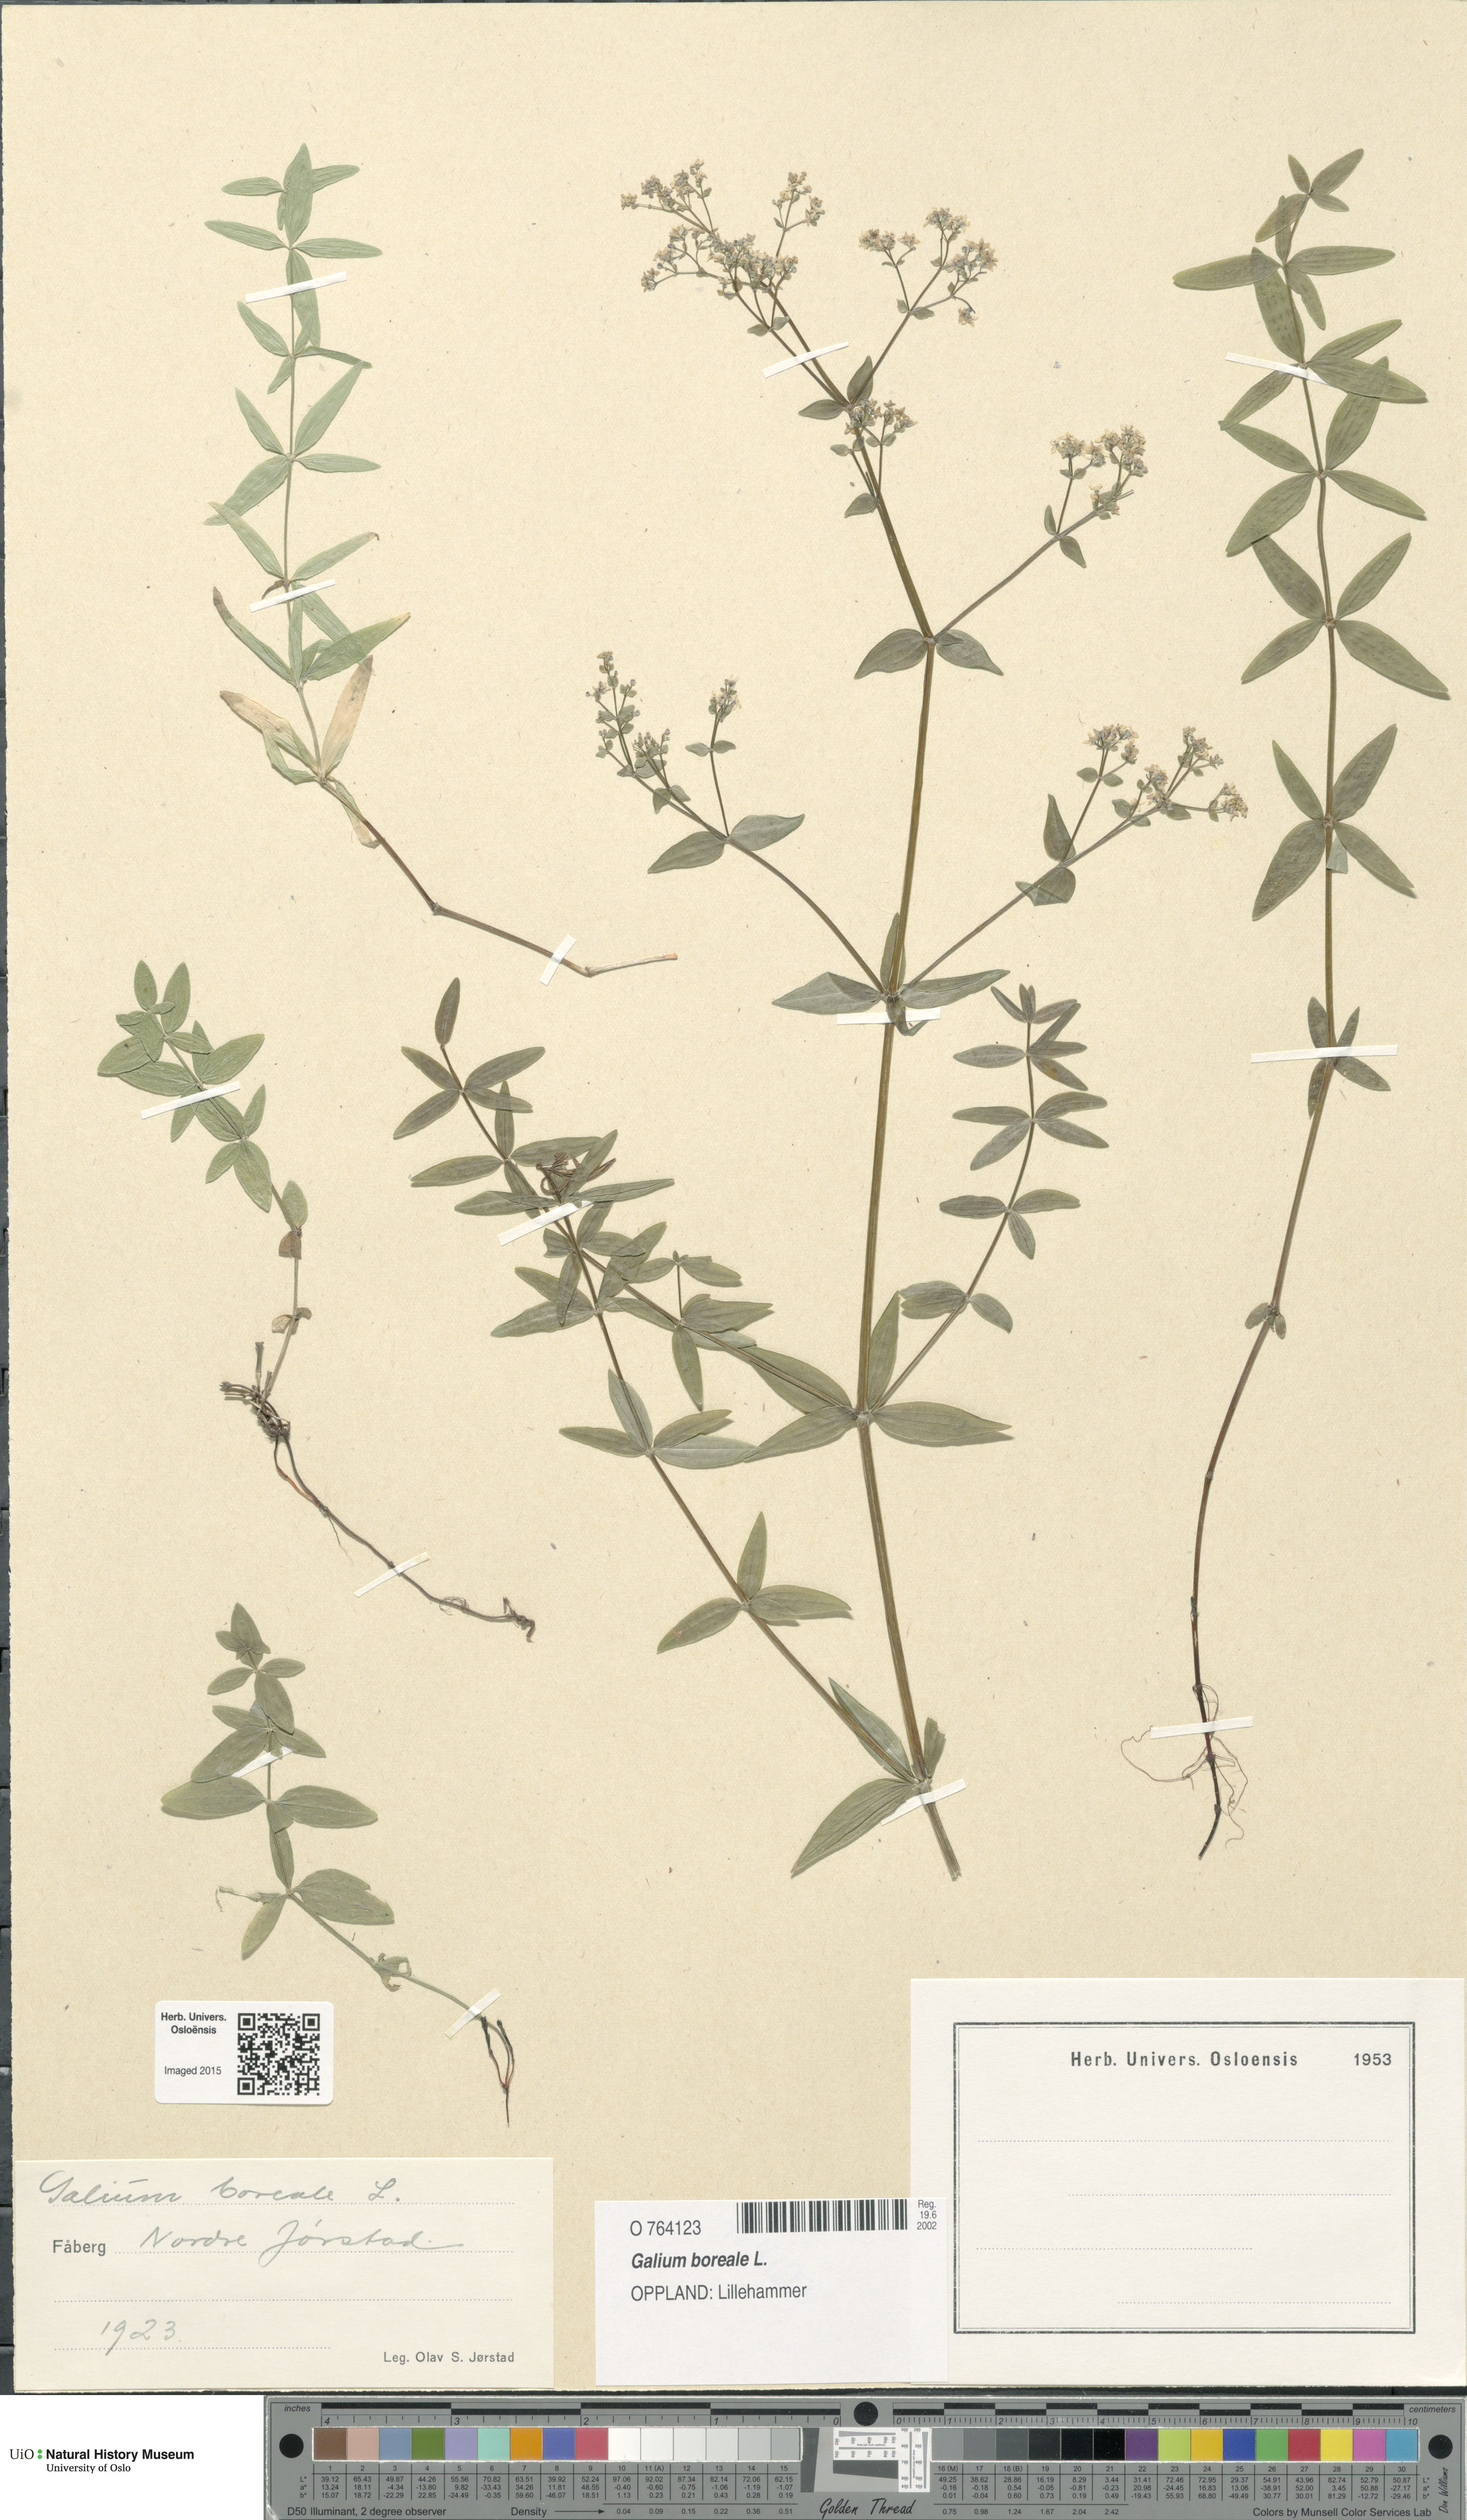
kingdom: Plantae
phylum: Tracheophyta
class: Magnoliopsida
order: Gentianales
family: Rubiaceae
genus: Galium
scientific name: Galium boreale
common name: Northern bedstraw
